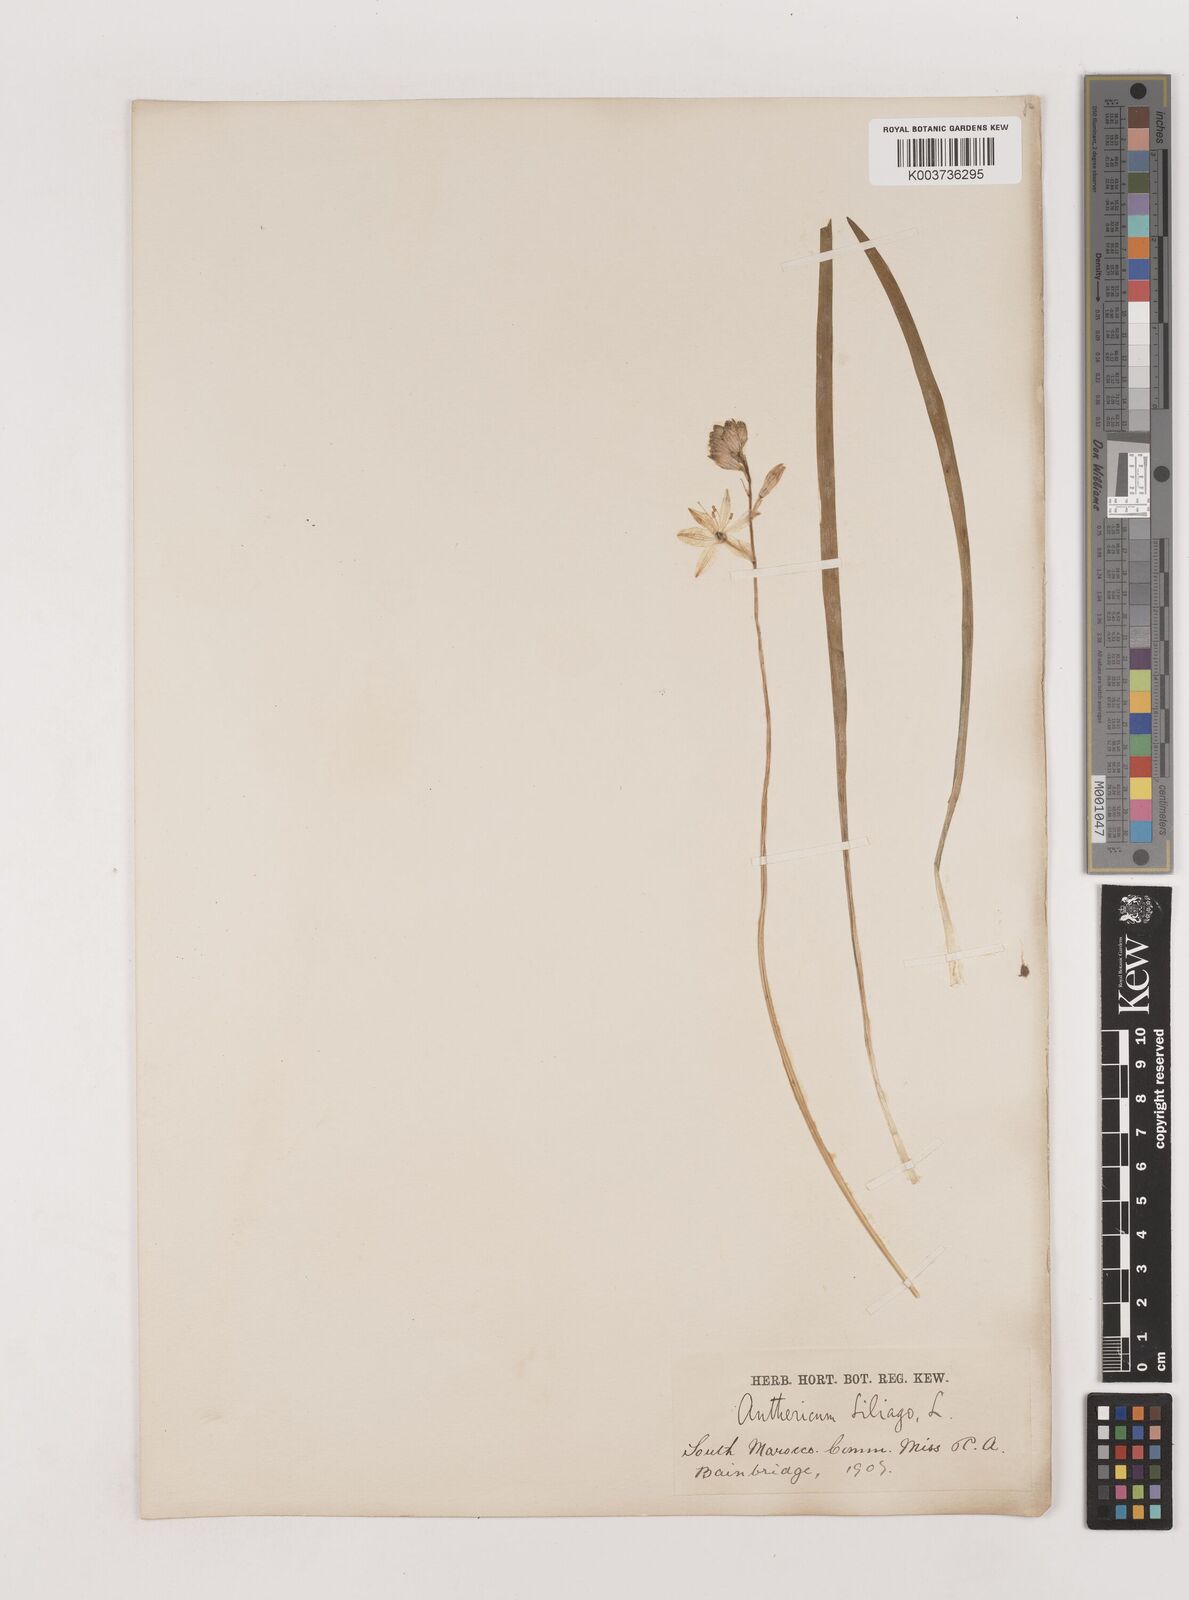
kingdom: Plantae
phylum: Tracheophyta
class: Liliopsida
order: Asparagales
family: Asparagaceae
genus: Anthericum
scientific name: Anthericum liliago
